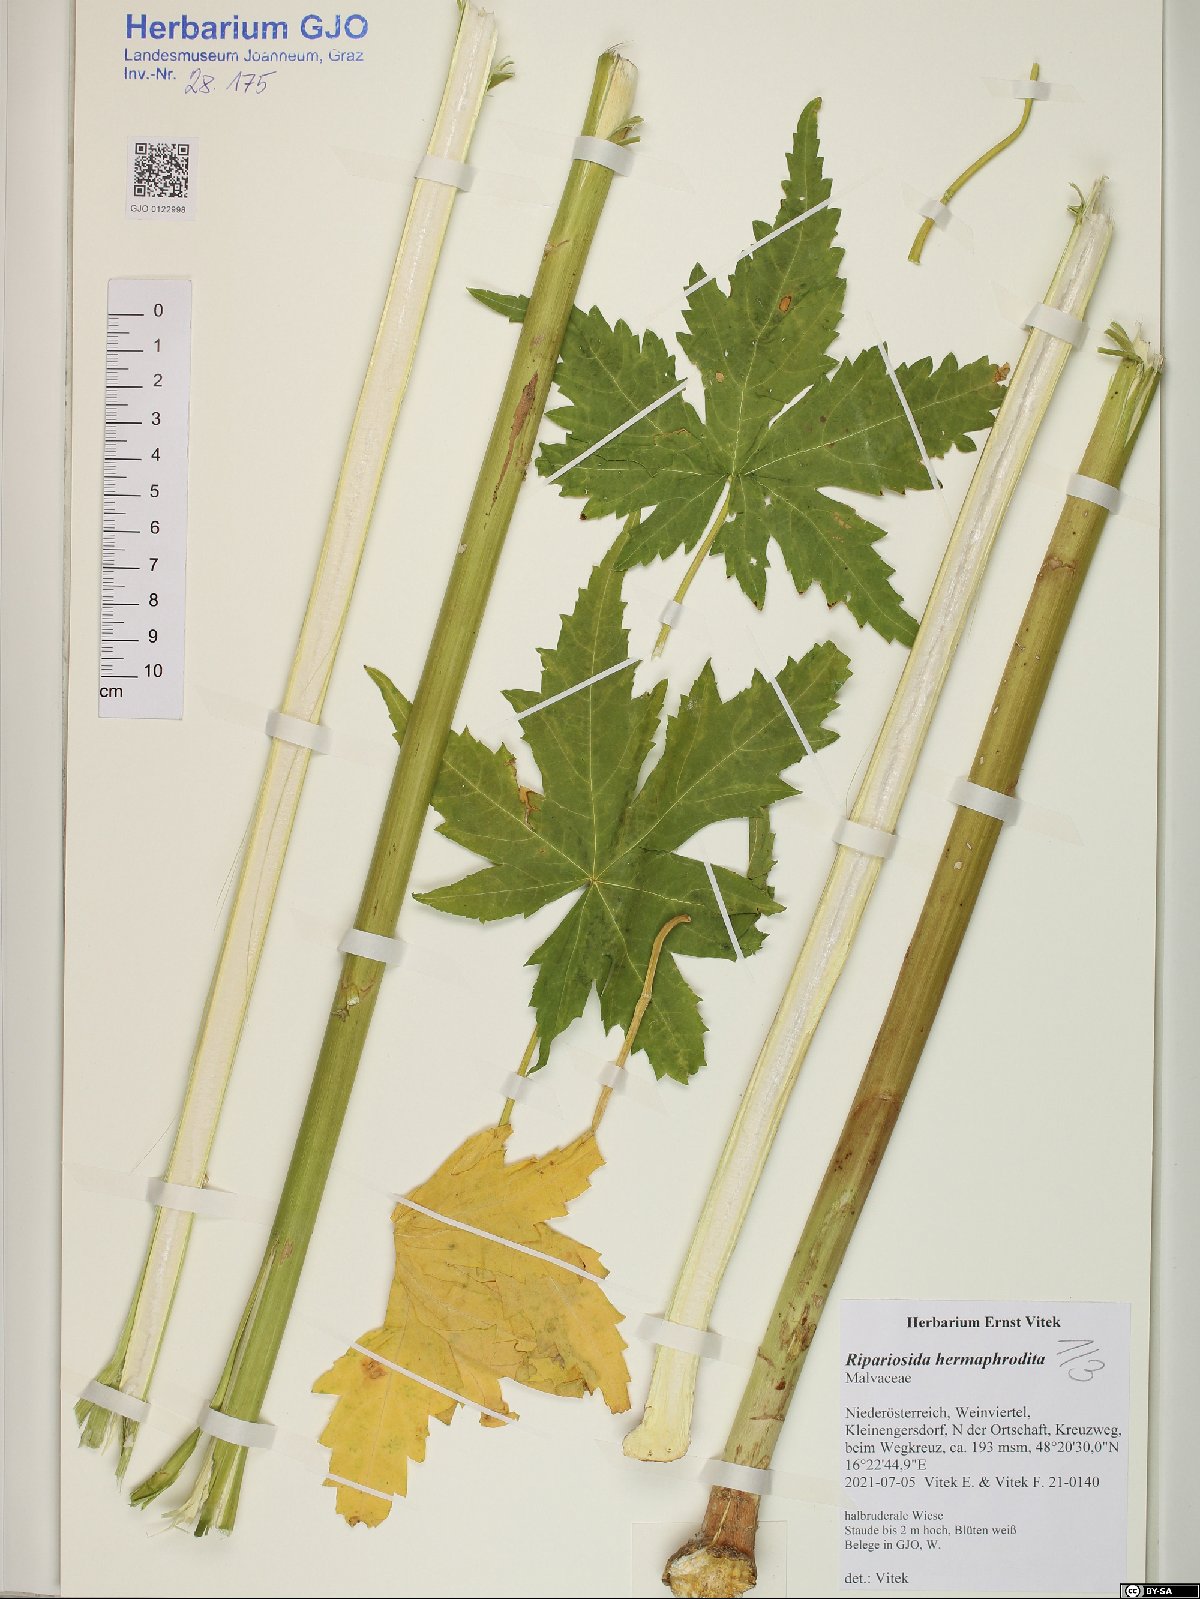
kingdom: Plantae
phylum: Tracheophyta
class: Magnoliopsida
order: Malvales
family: Malvaceae
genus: Ripariosida
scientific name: Ripariosida hermaphrodita
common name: Virginia fanpetals
